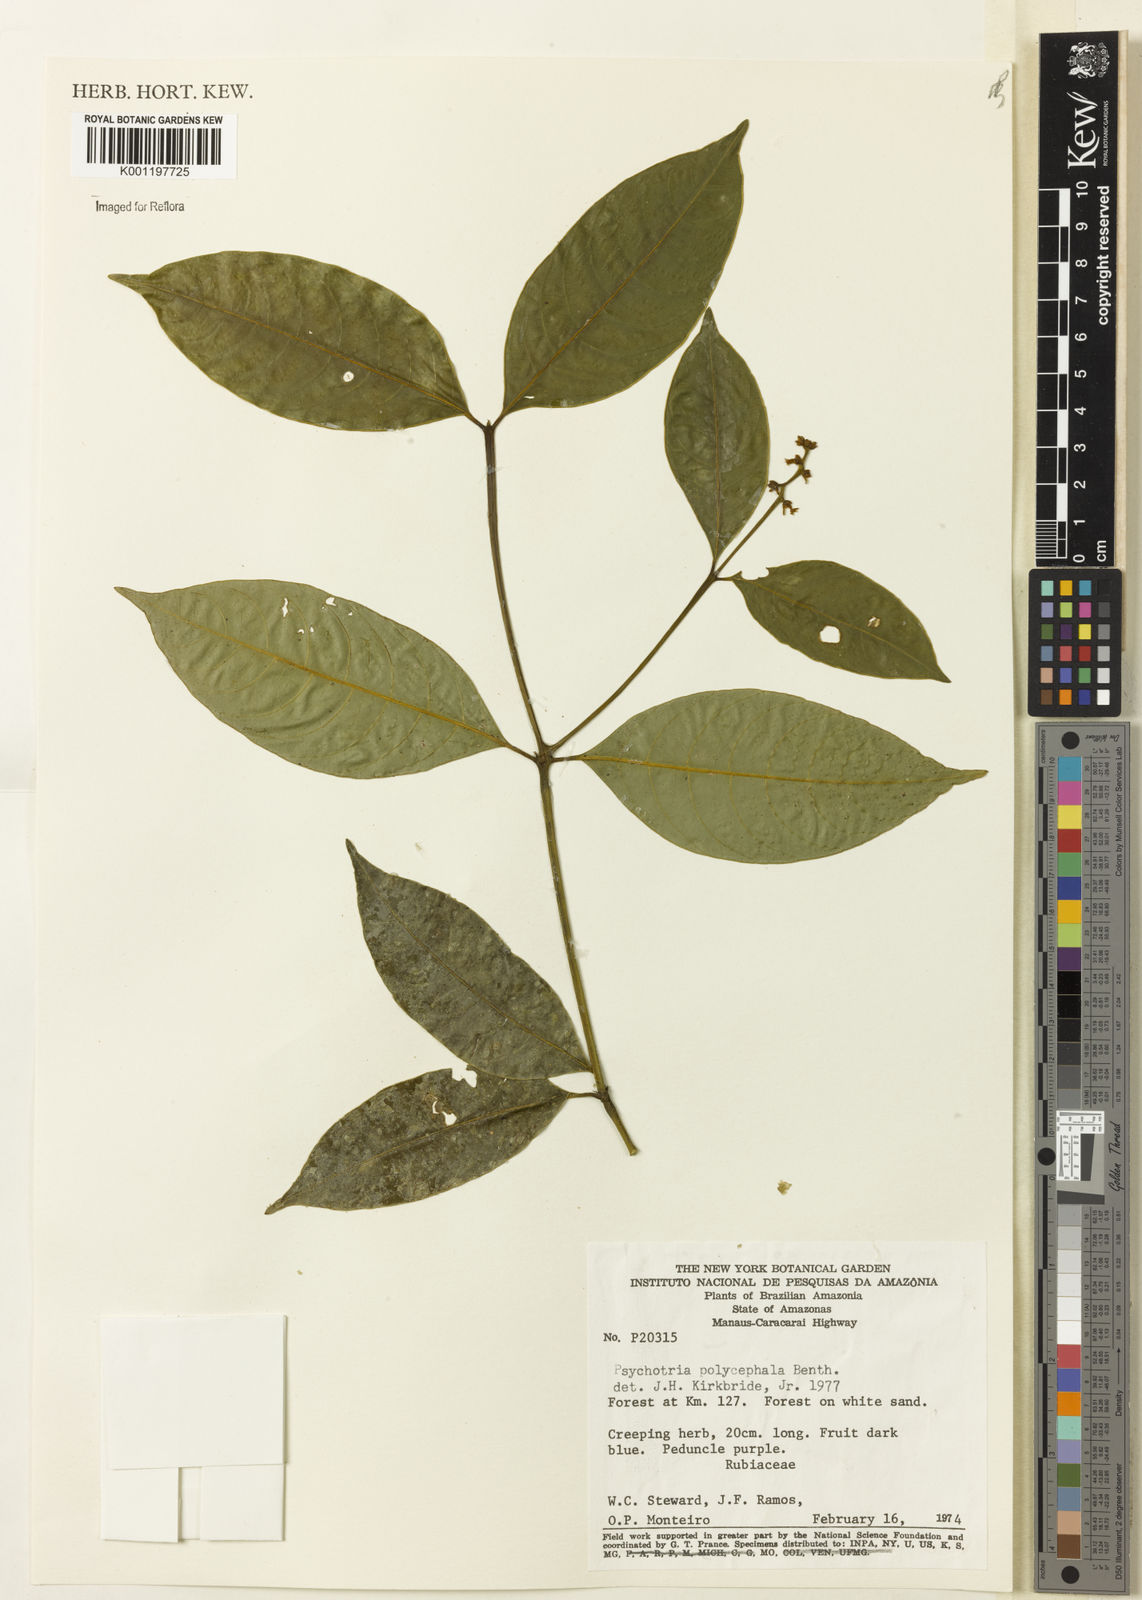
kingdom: Plantae
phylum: Tracheophyta
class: Magnoliopsida
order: Gentianales
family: Rubiaceae
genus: Palicourea
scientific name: Palicourea polycephala
